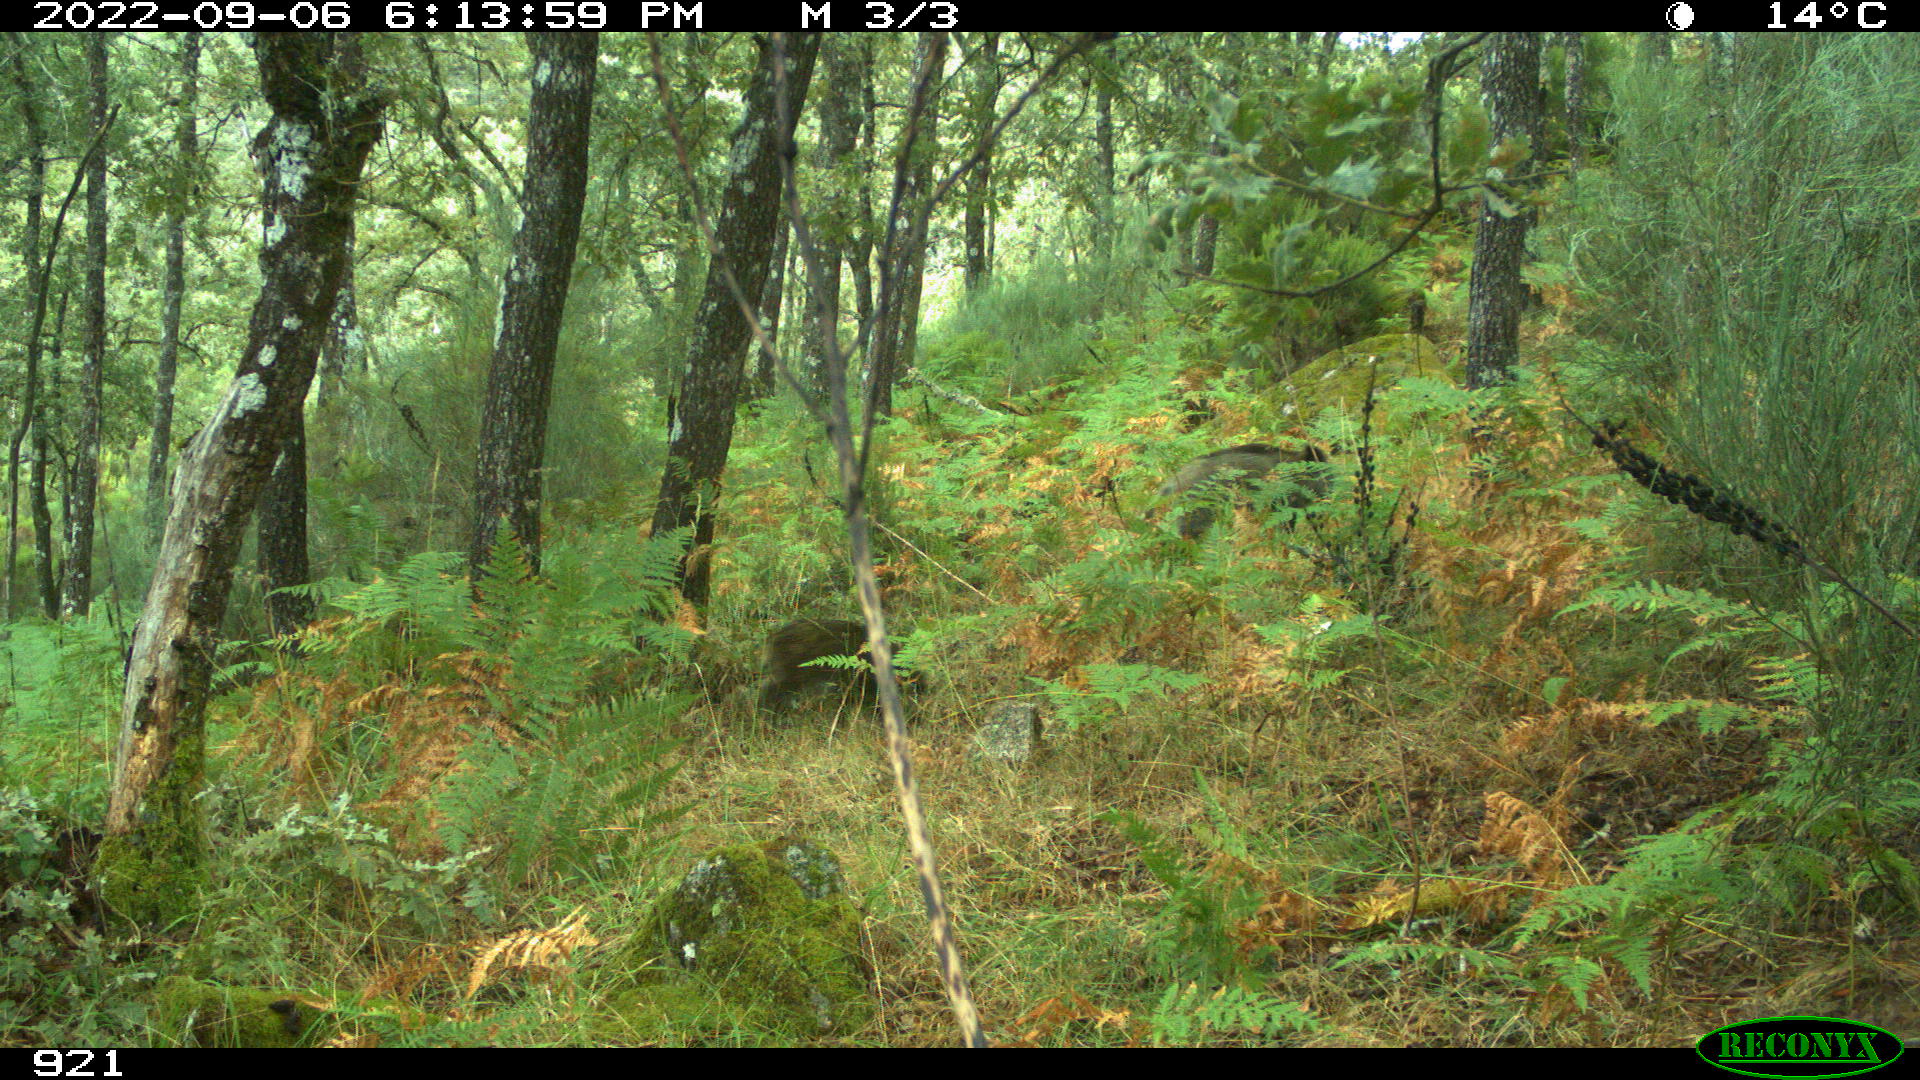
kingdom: Animalia
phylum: Chordata
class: Mammalia
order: Artiodactyla
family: Suidae
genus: Sus
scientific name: Sus scrofa
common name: Wild boar
